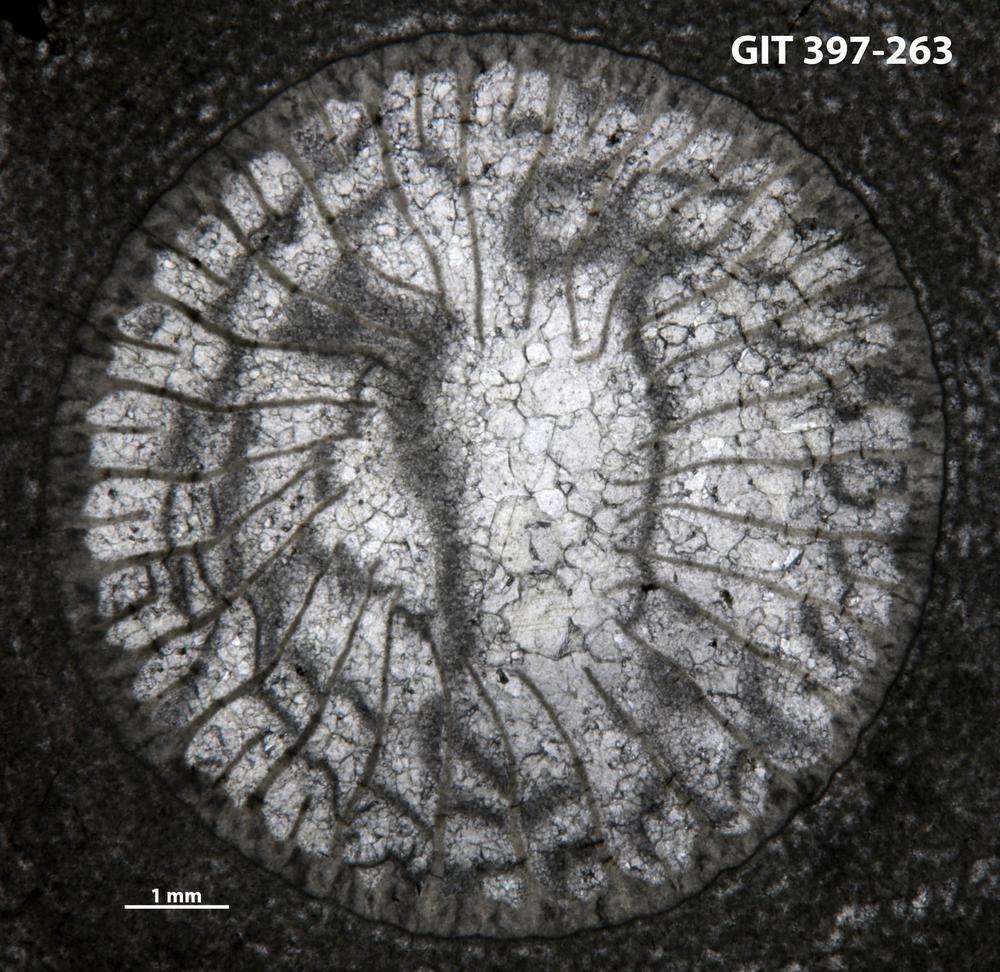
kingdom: Animalia
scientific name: Animalia
